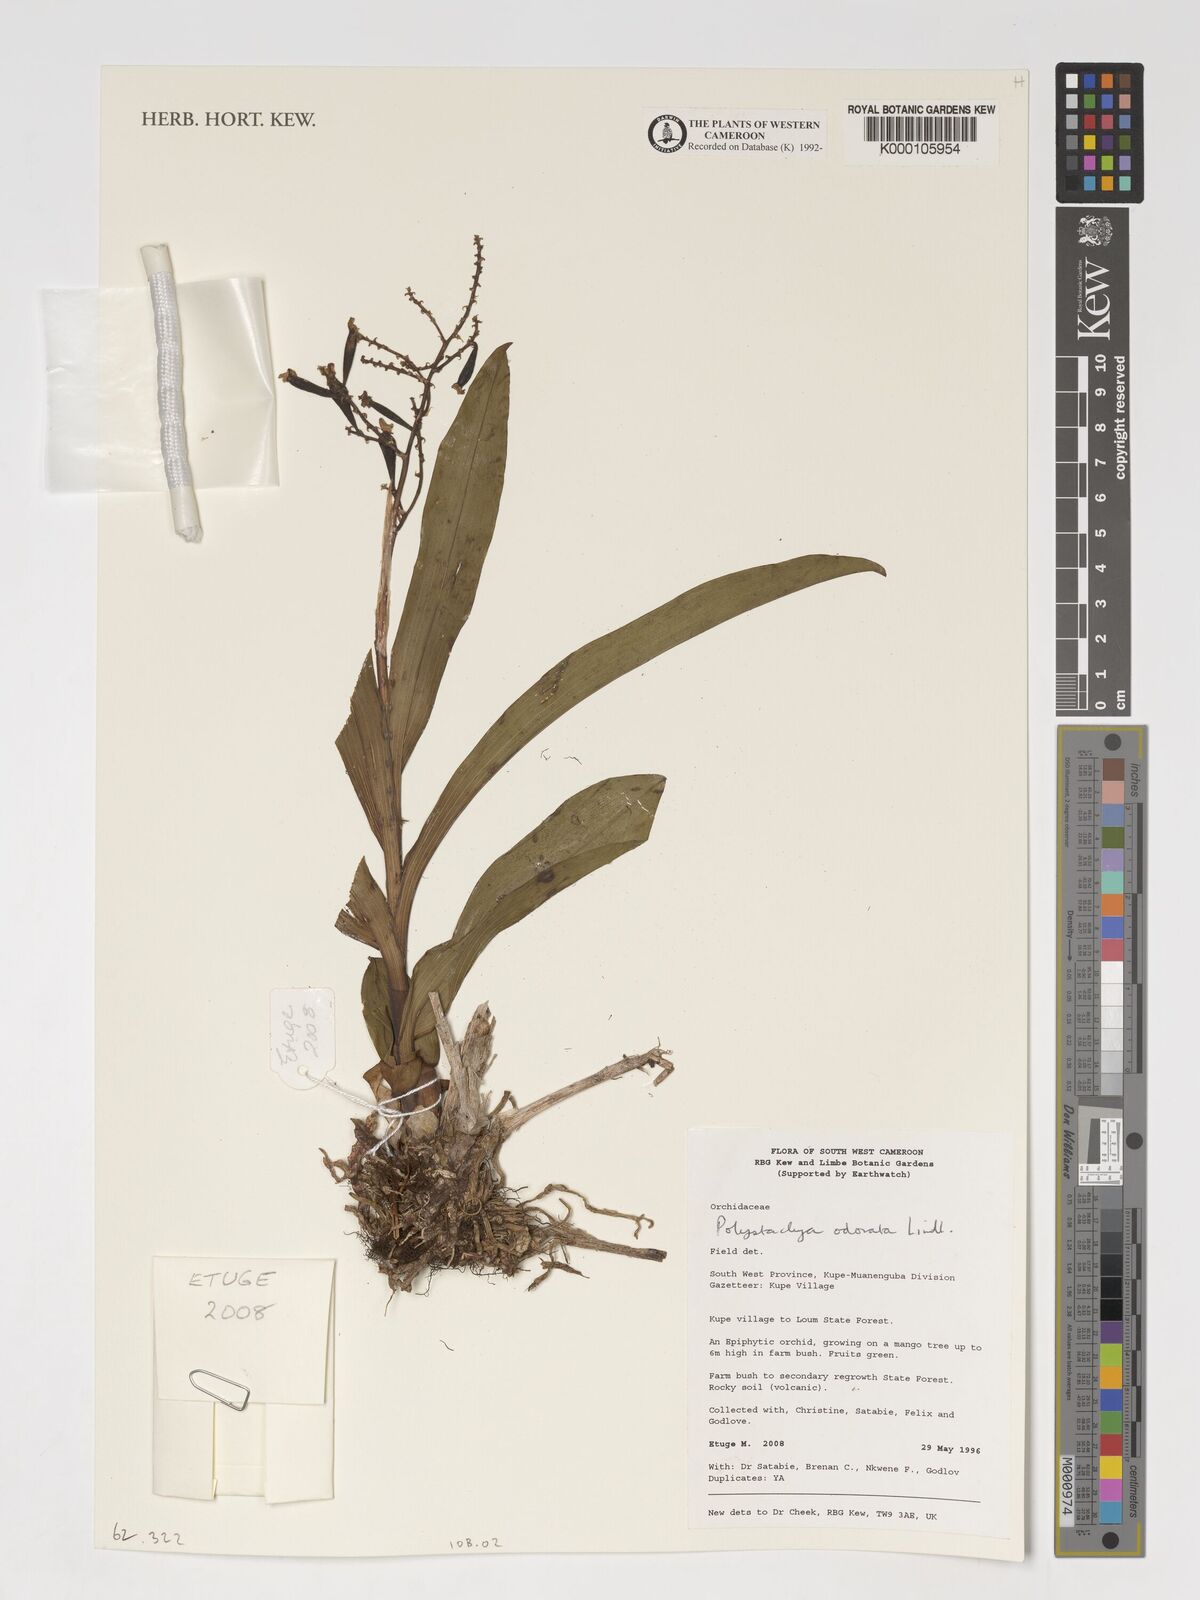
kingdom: Plantae
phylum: Tracheophyta
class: Liliopsida
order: Asparagales
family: Orchidaceae
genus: Polystachya
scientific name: Polystachya odorata
